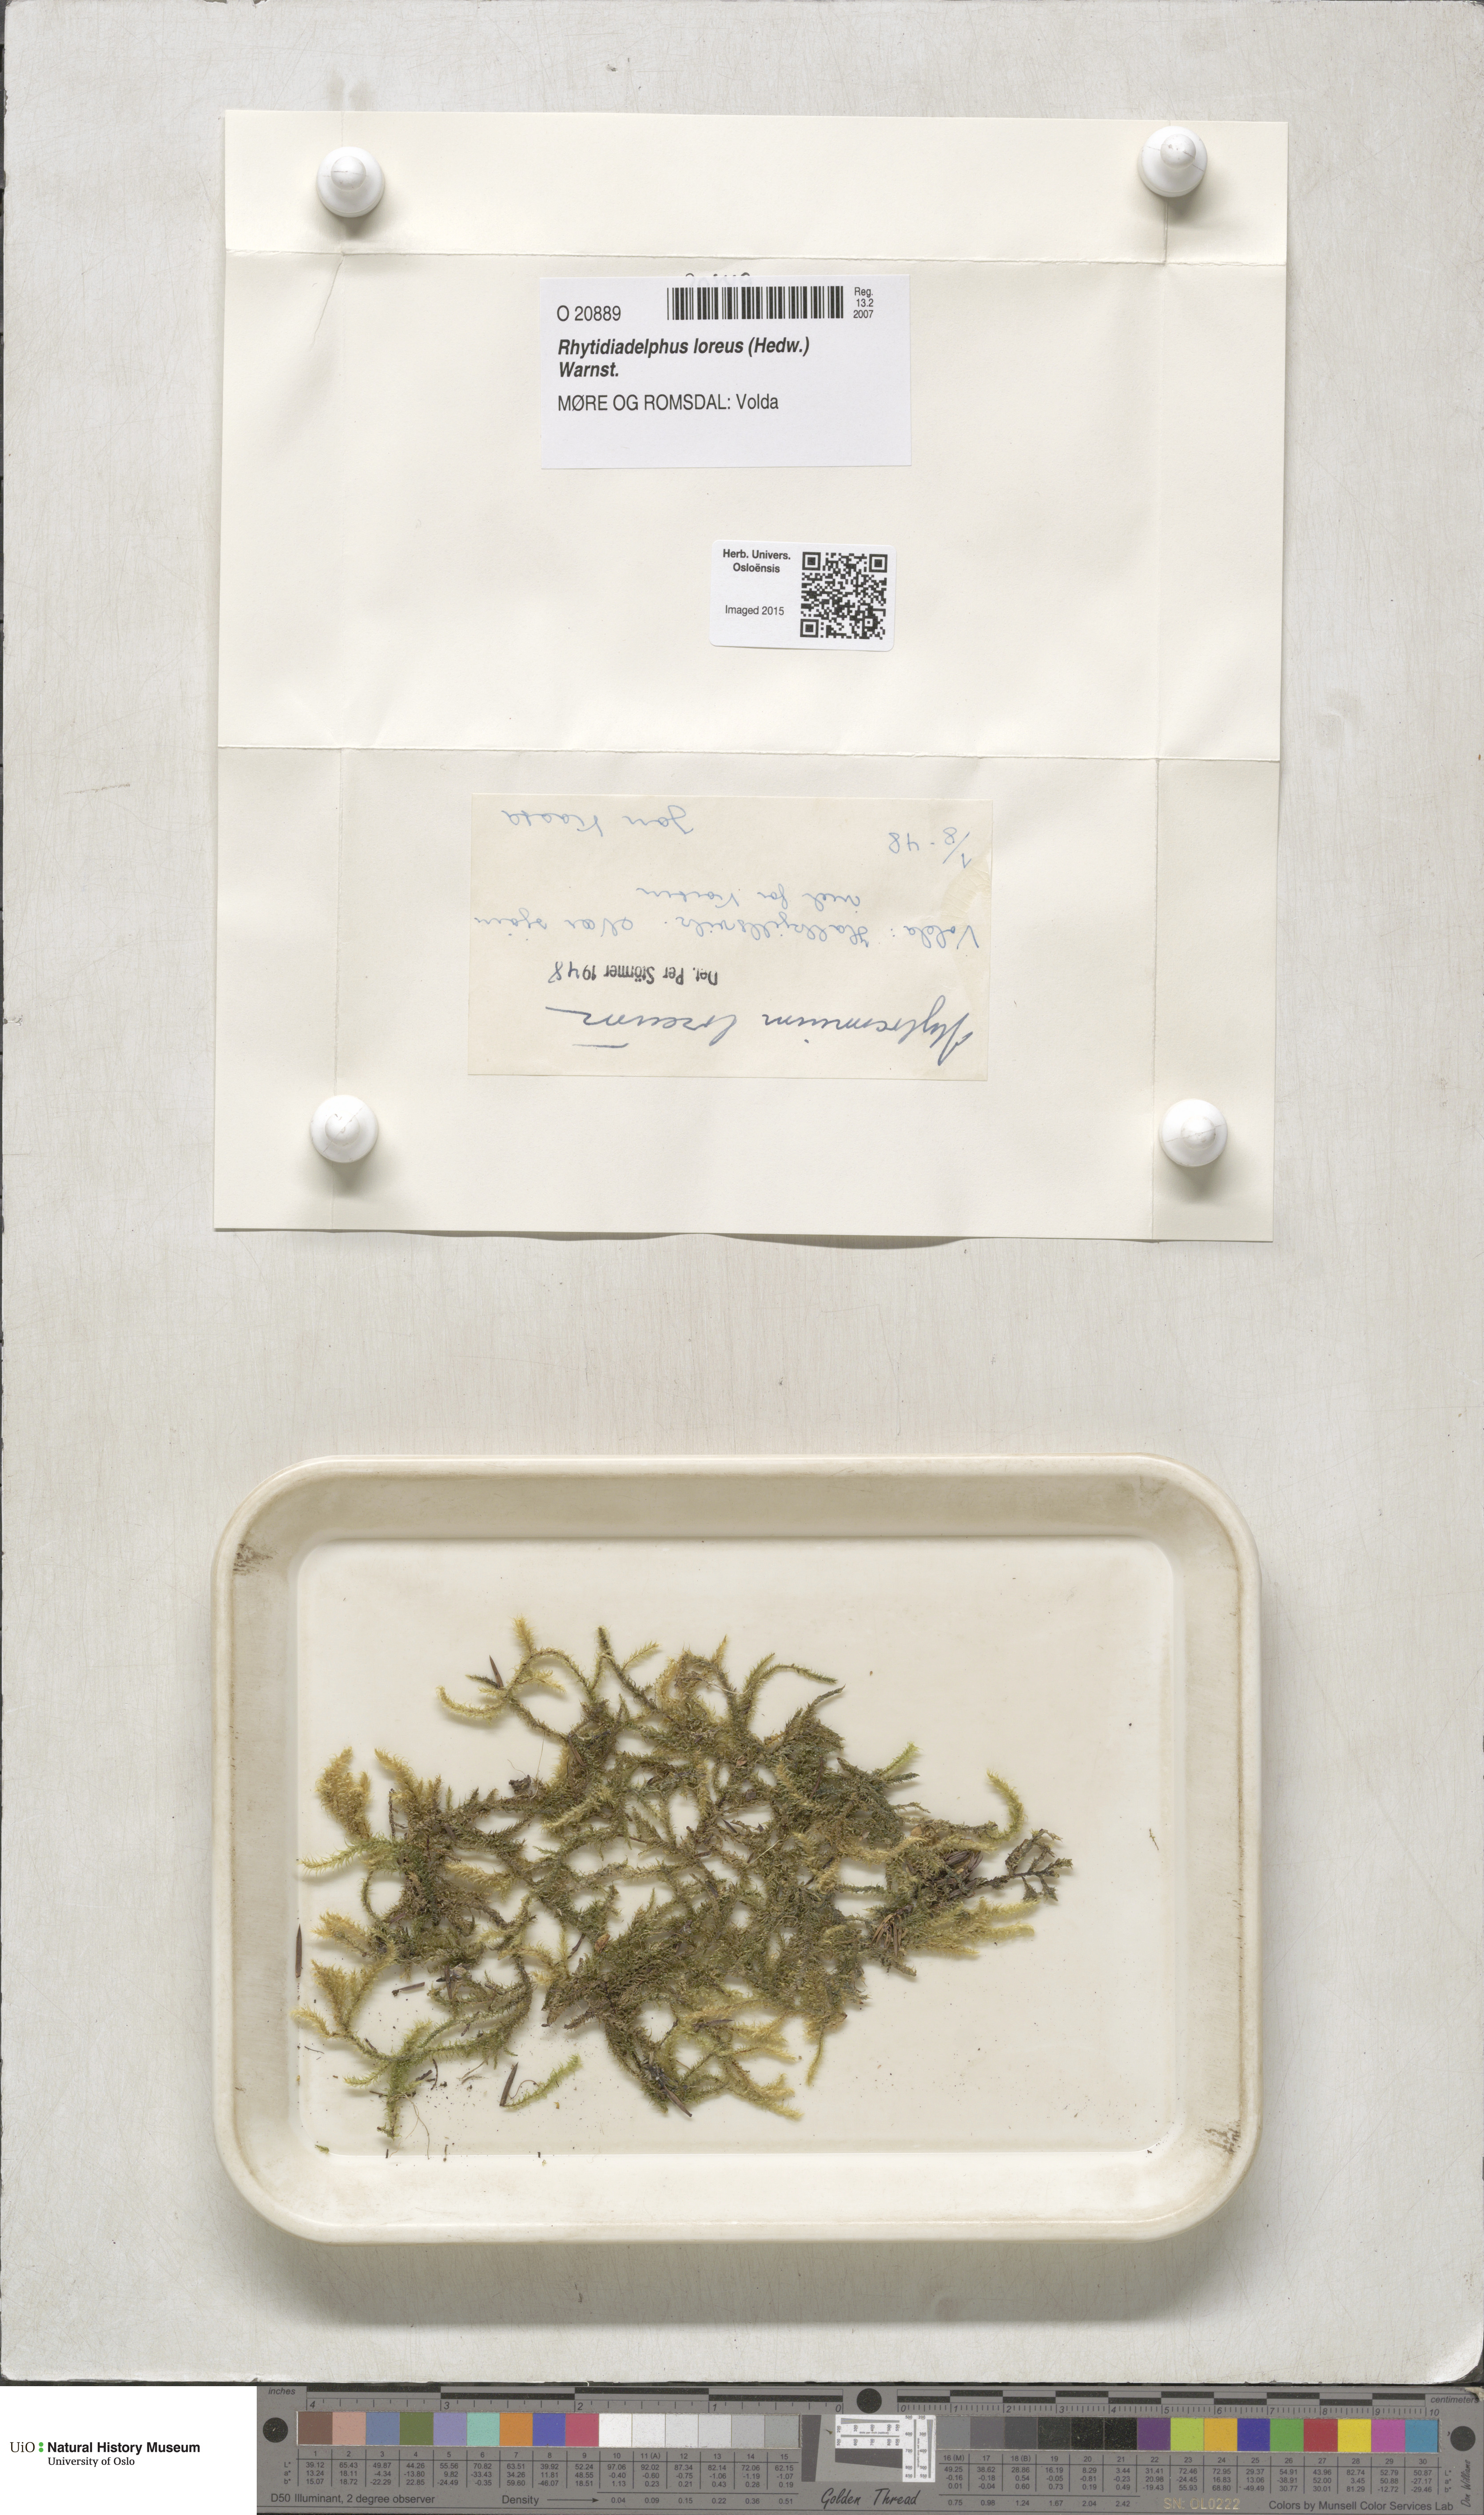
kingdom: Plantae
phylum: Bryophyta
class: Bryopsida
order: Hypnales
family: Hylocomiaceae
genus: Rhytidiadelphus
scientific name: Rhytidiadelphus loreus
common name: Lanky moss
